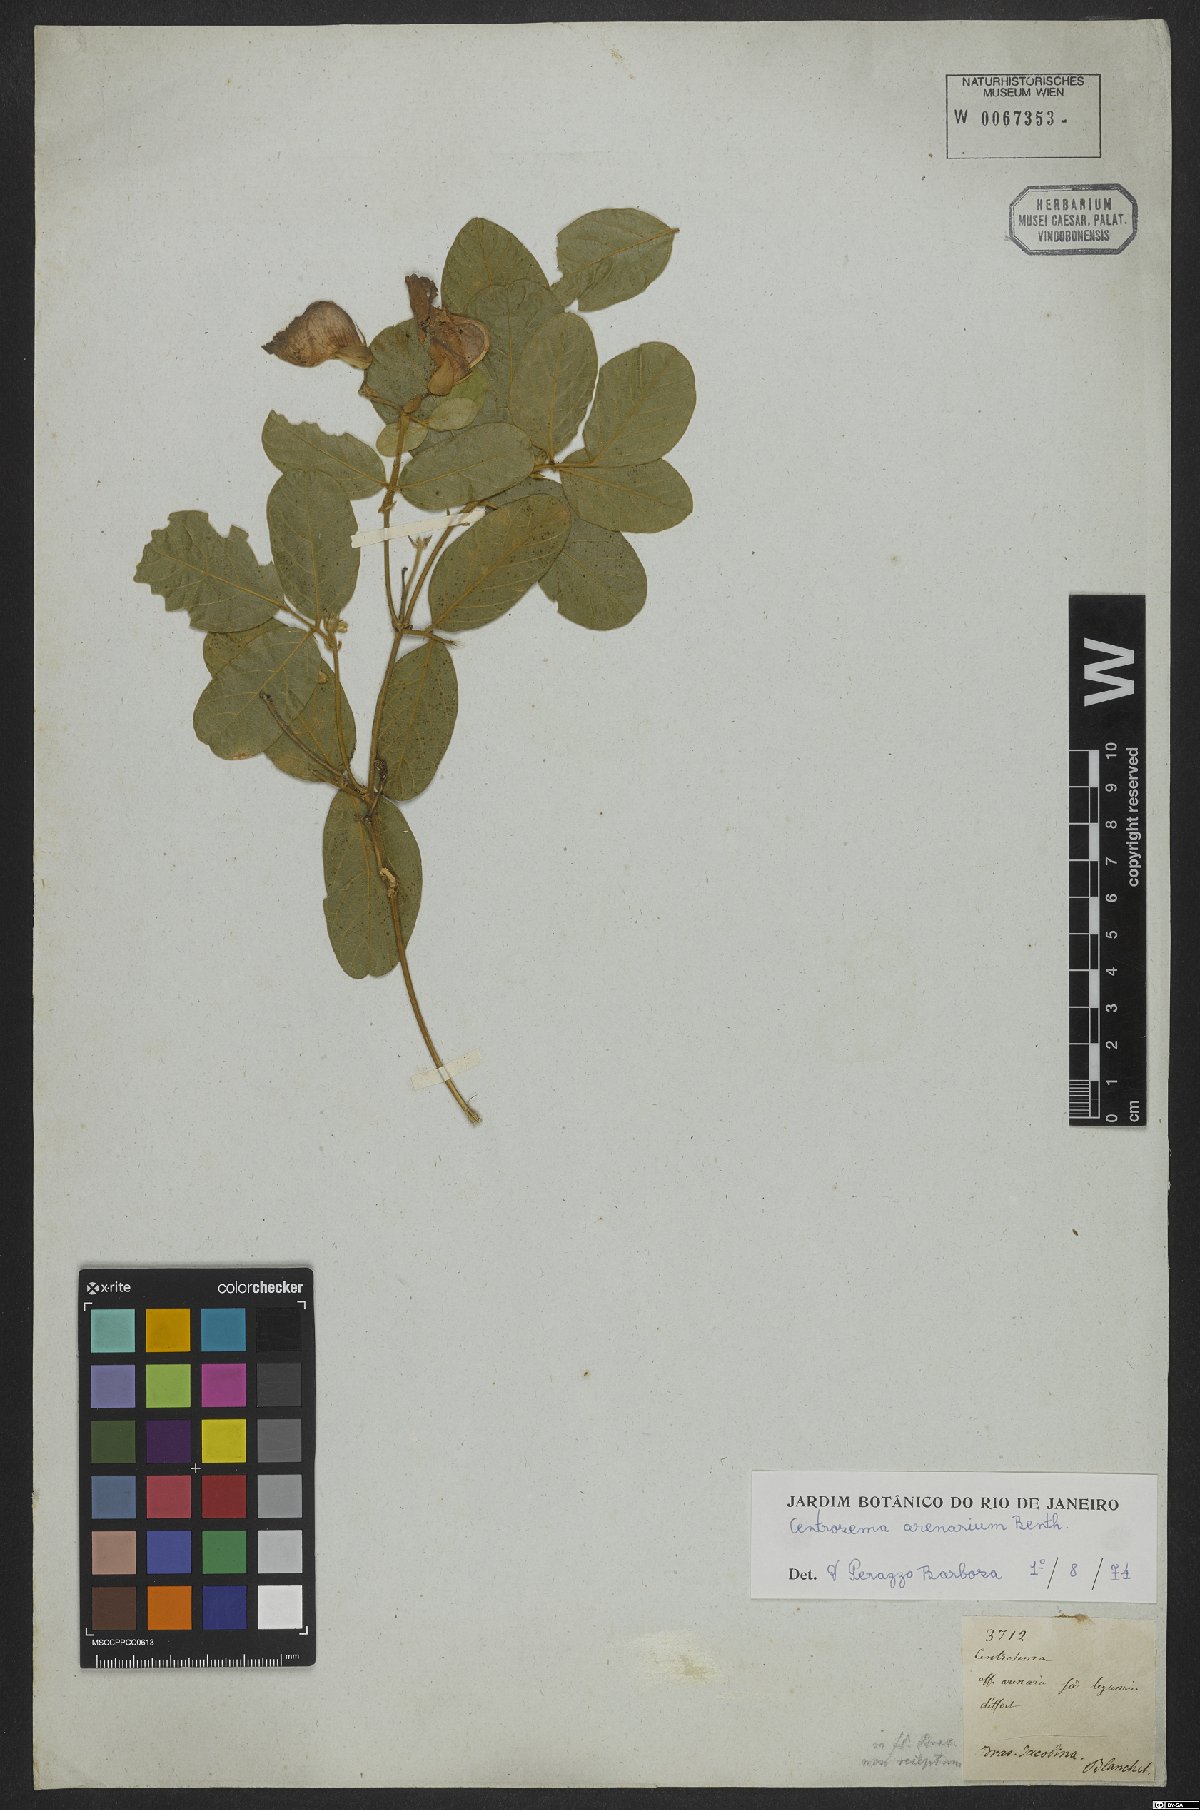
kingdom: Plantae
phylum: Tracheophyta
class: Magnoliopsida
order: Fabales
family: Fabaceae
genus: Centrosema
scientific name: Centrosema arenarium
